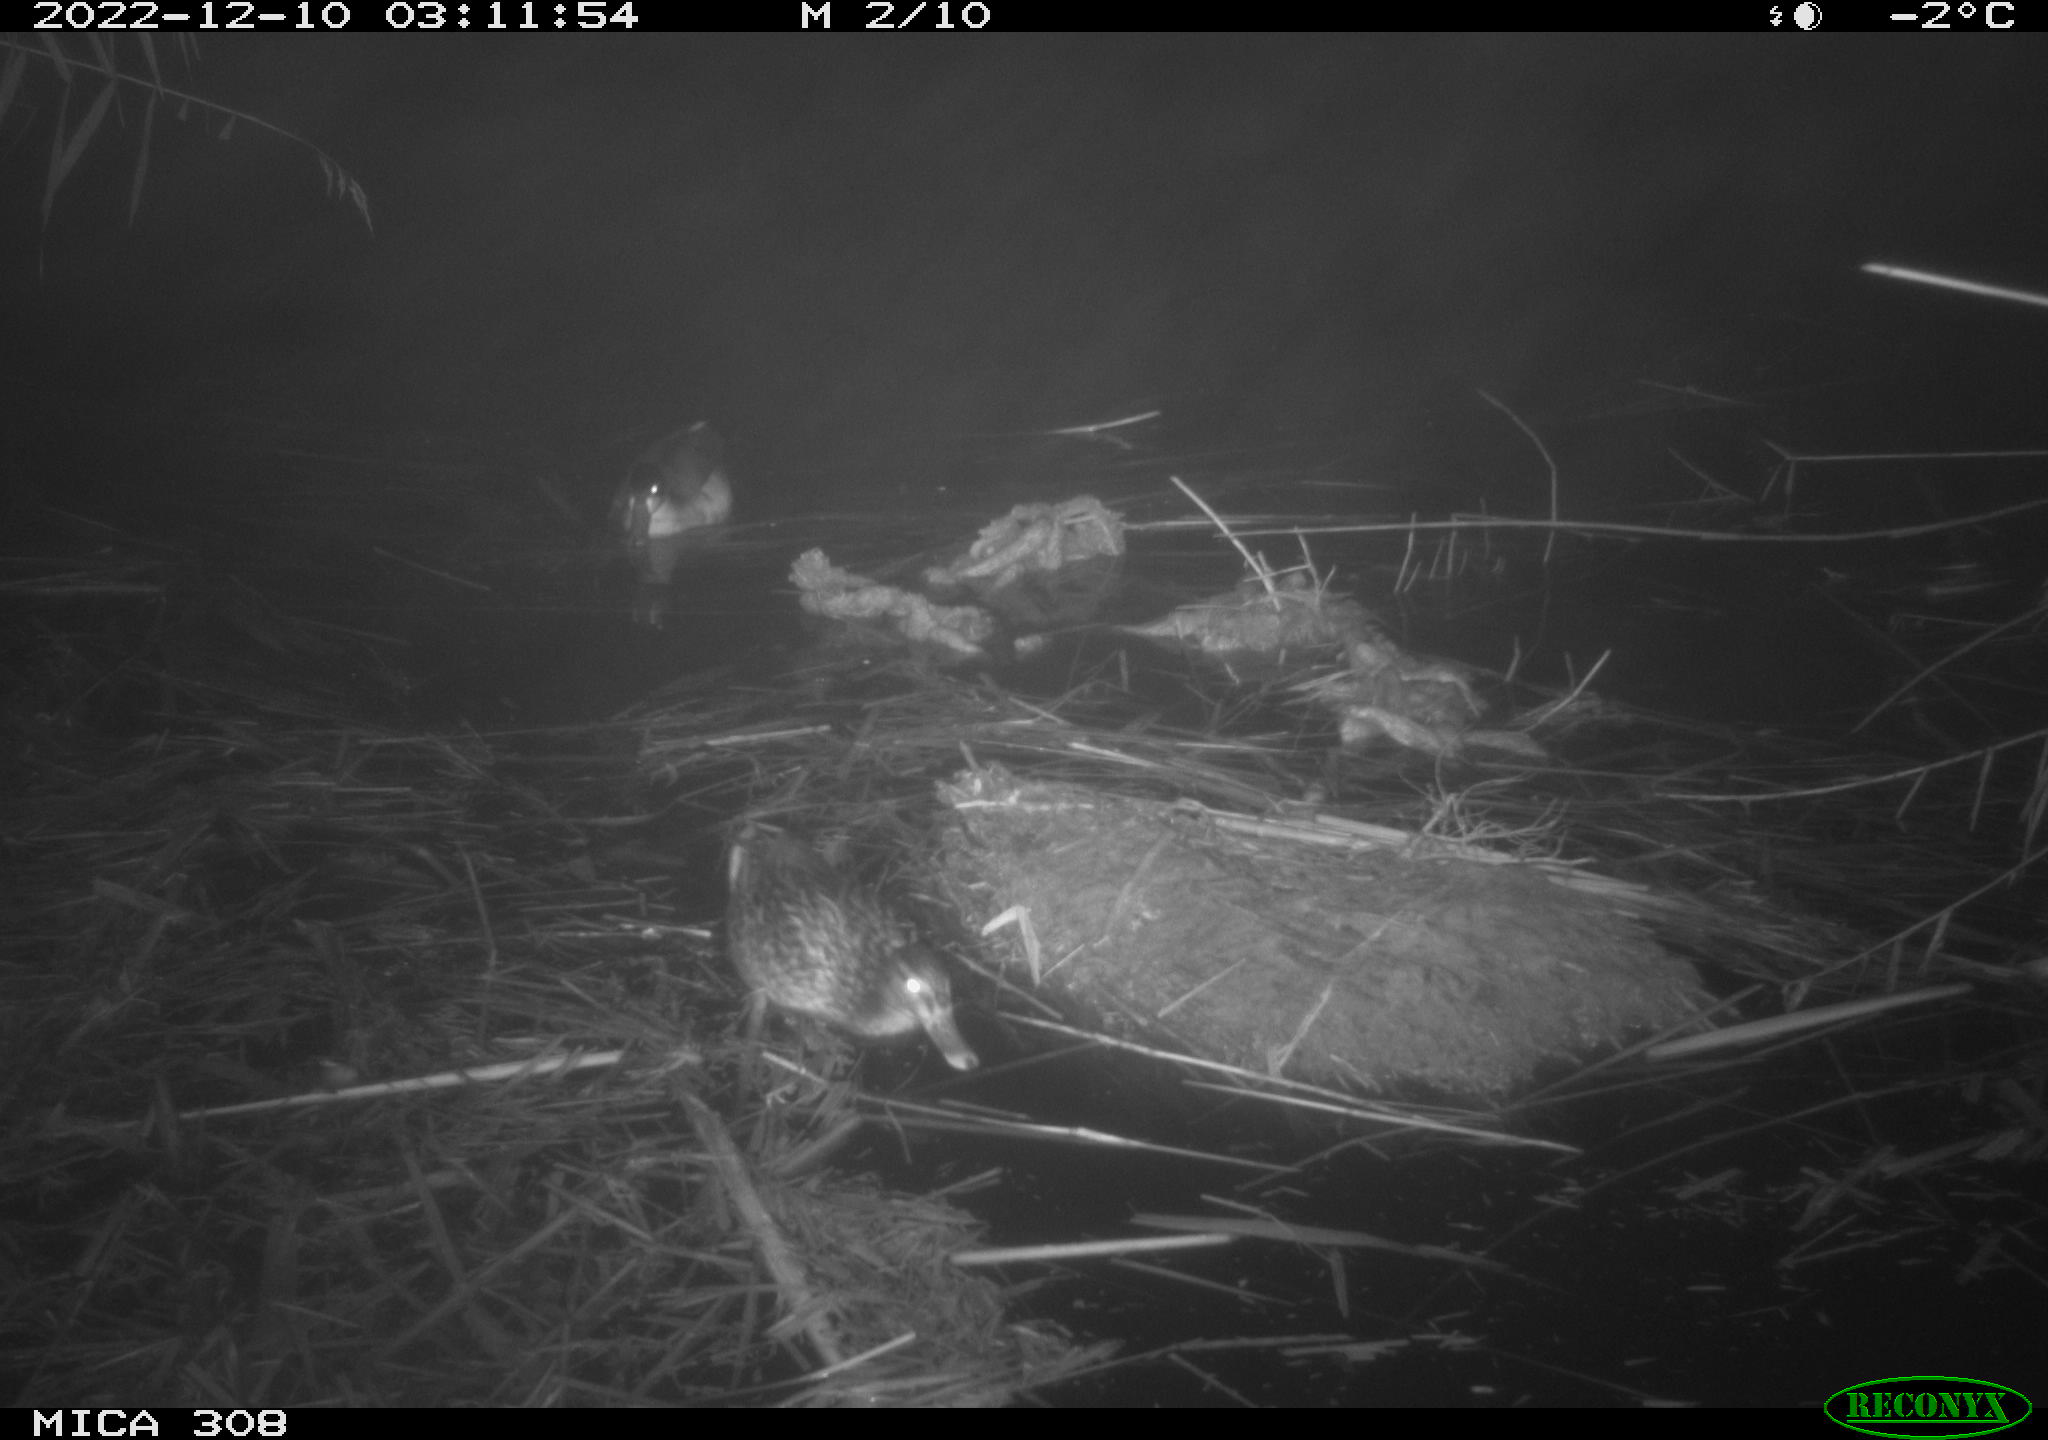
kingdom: Animalia
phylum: Chordata
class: Mammalia
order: Rodentia
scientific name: Rodentia
